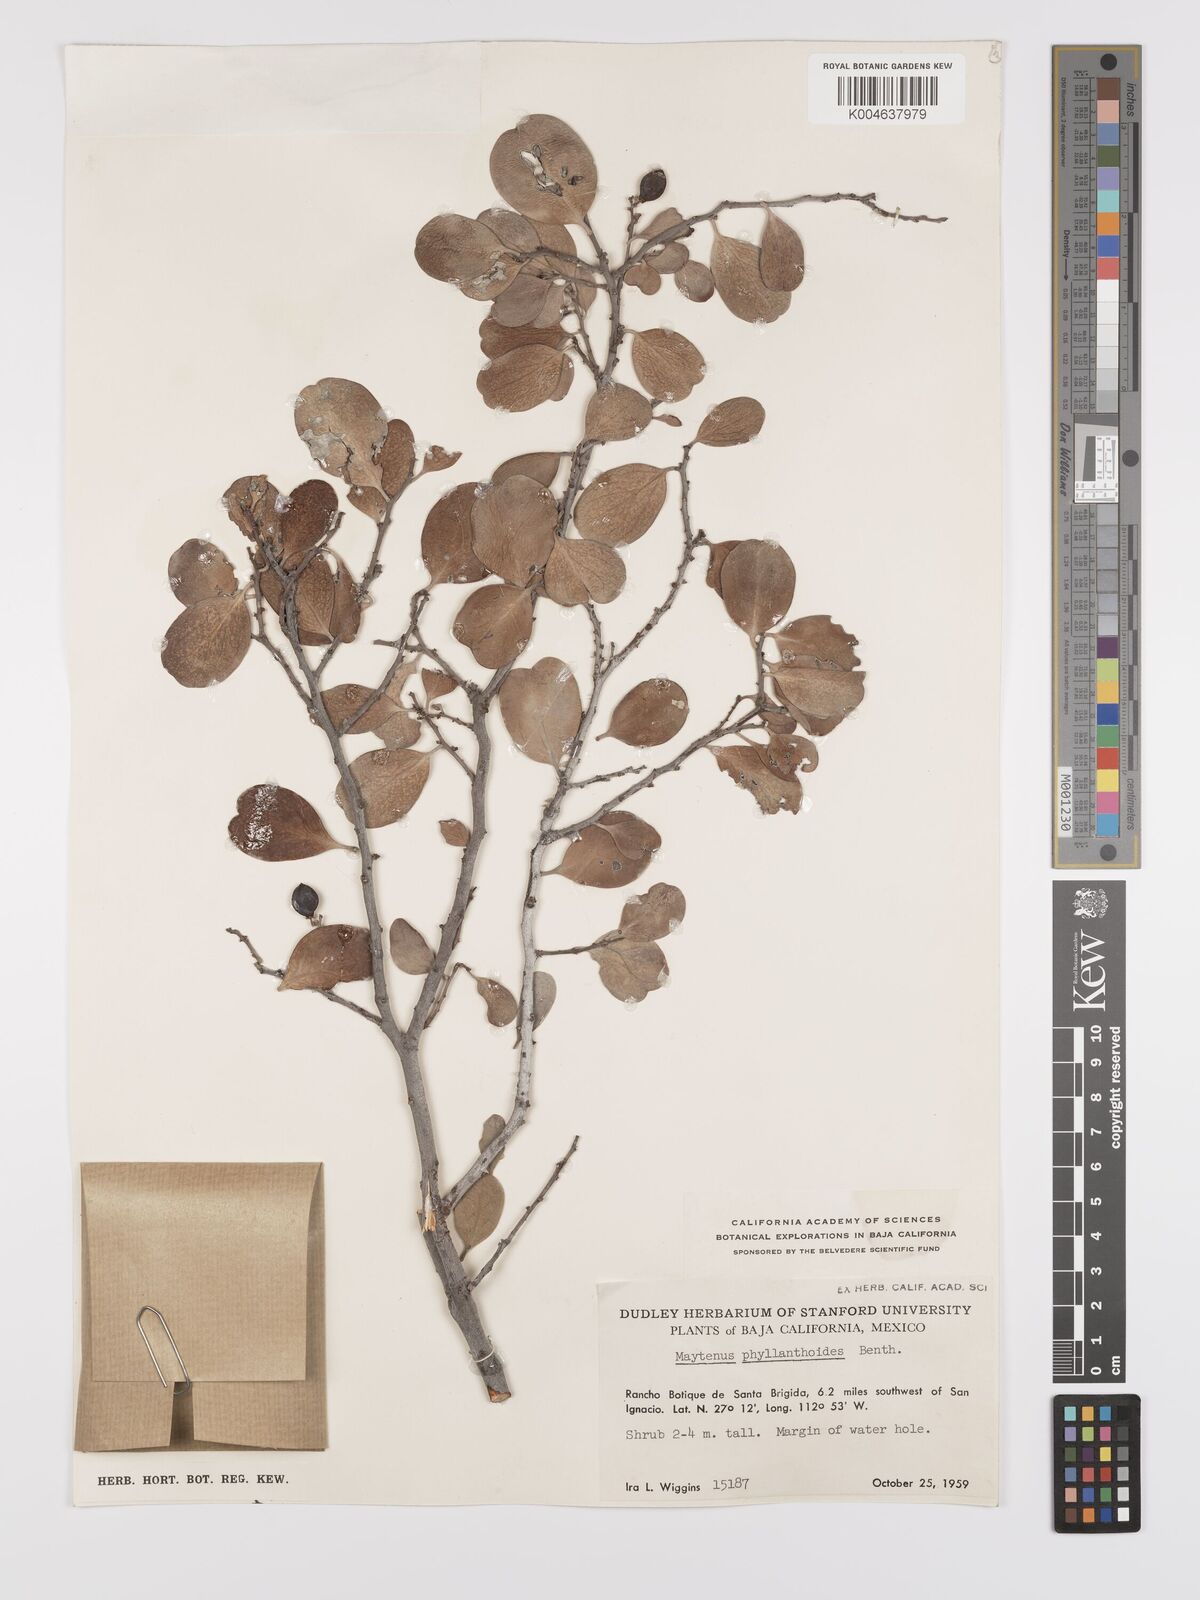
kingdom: Plantae
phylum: Tracheophyta
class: Magnoliopsida
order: Celastrales
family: Celastraceae
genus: Tricerma
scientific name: Tricerma phyllanthoides
